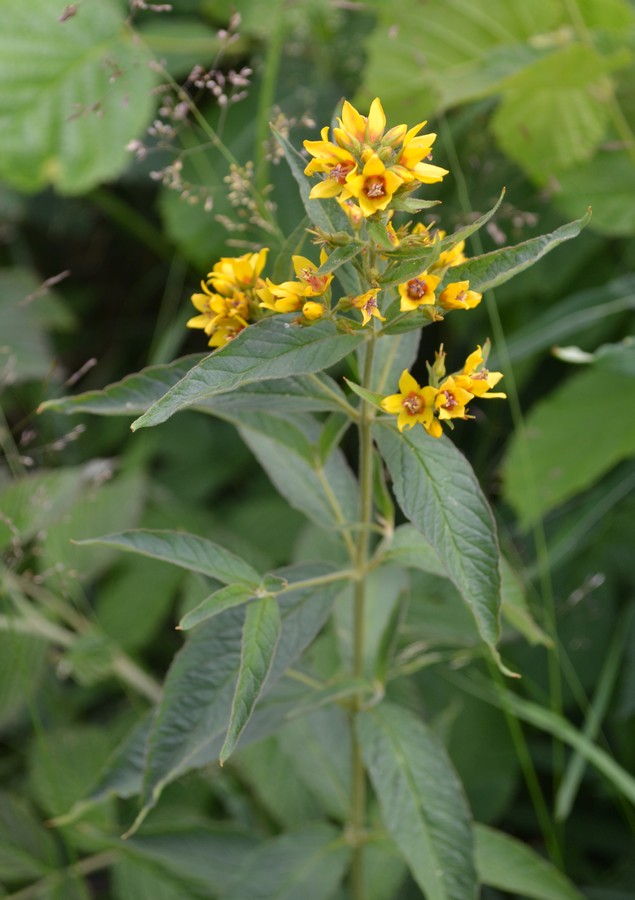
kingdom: Plantae
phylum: Tracheophyta
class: Magnoliopsida
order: Ericales
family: Primulaceae
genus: Lysimachia
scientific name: Lysimachia vulgaris
